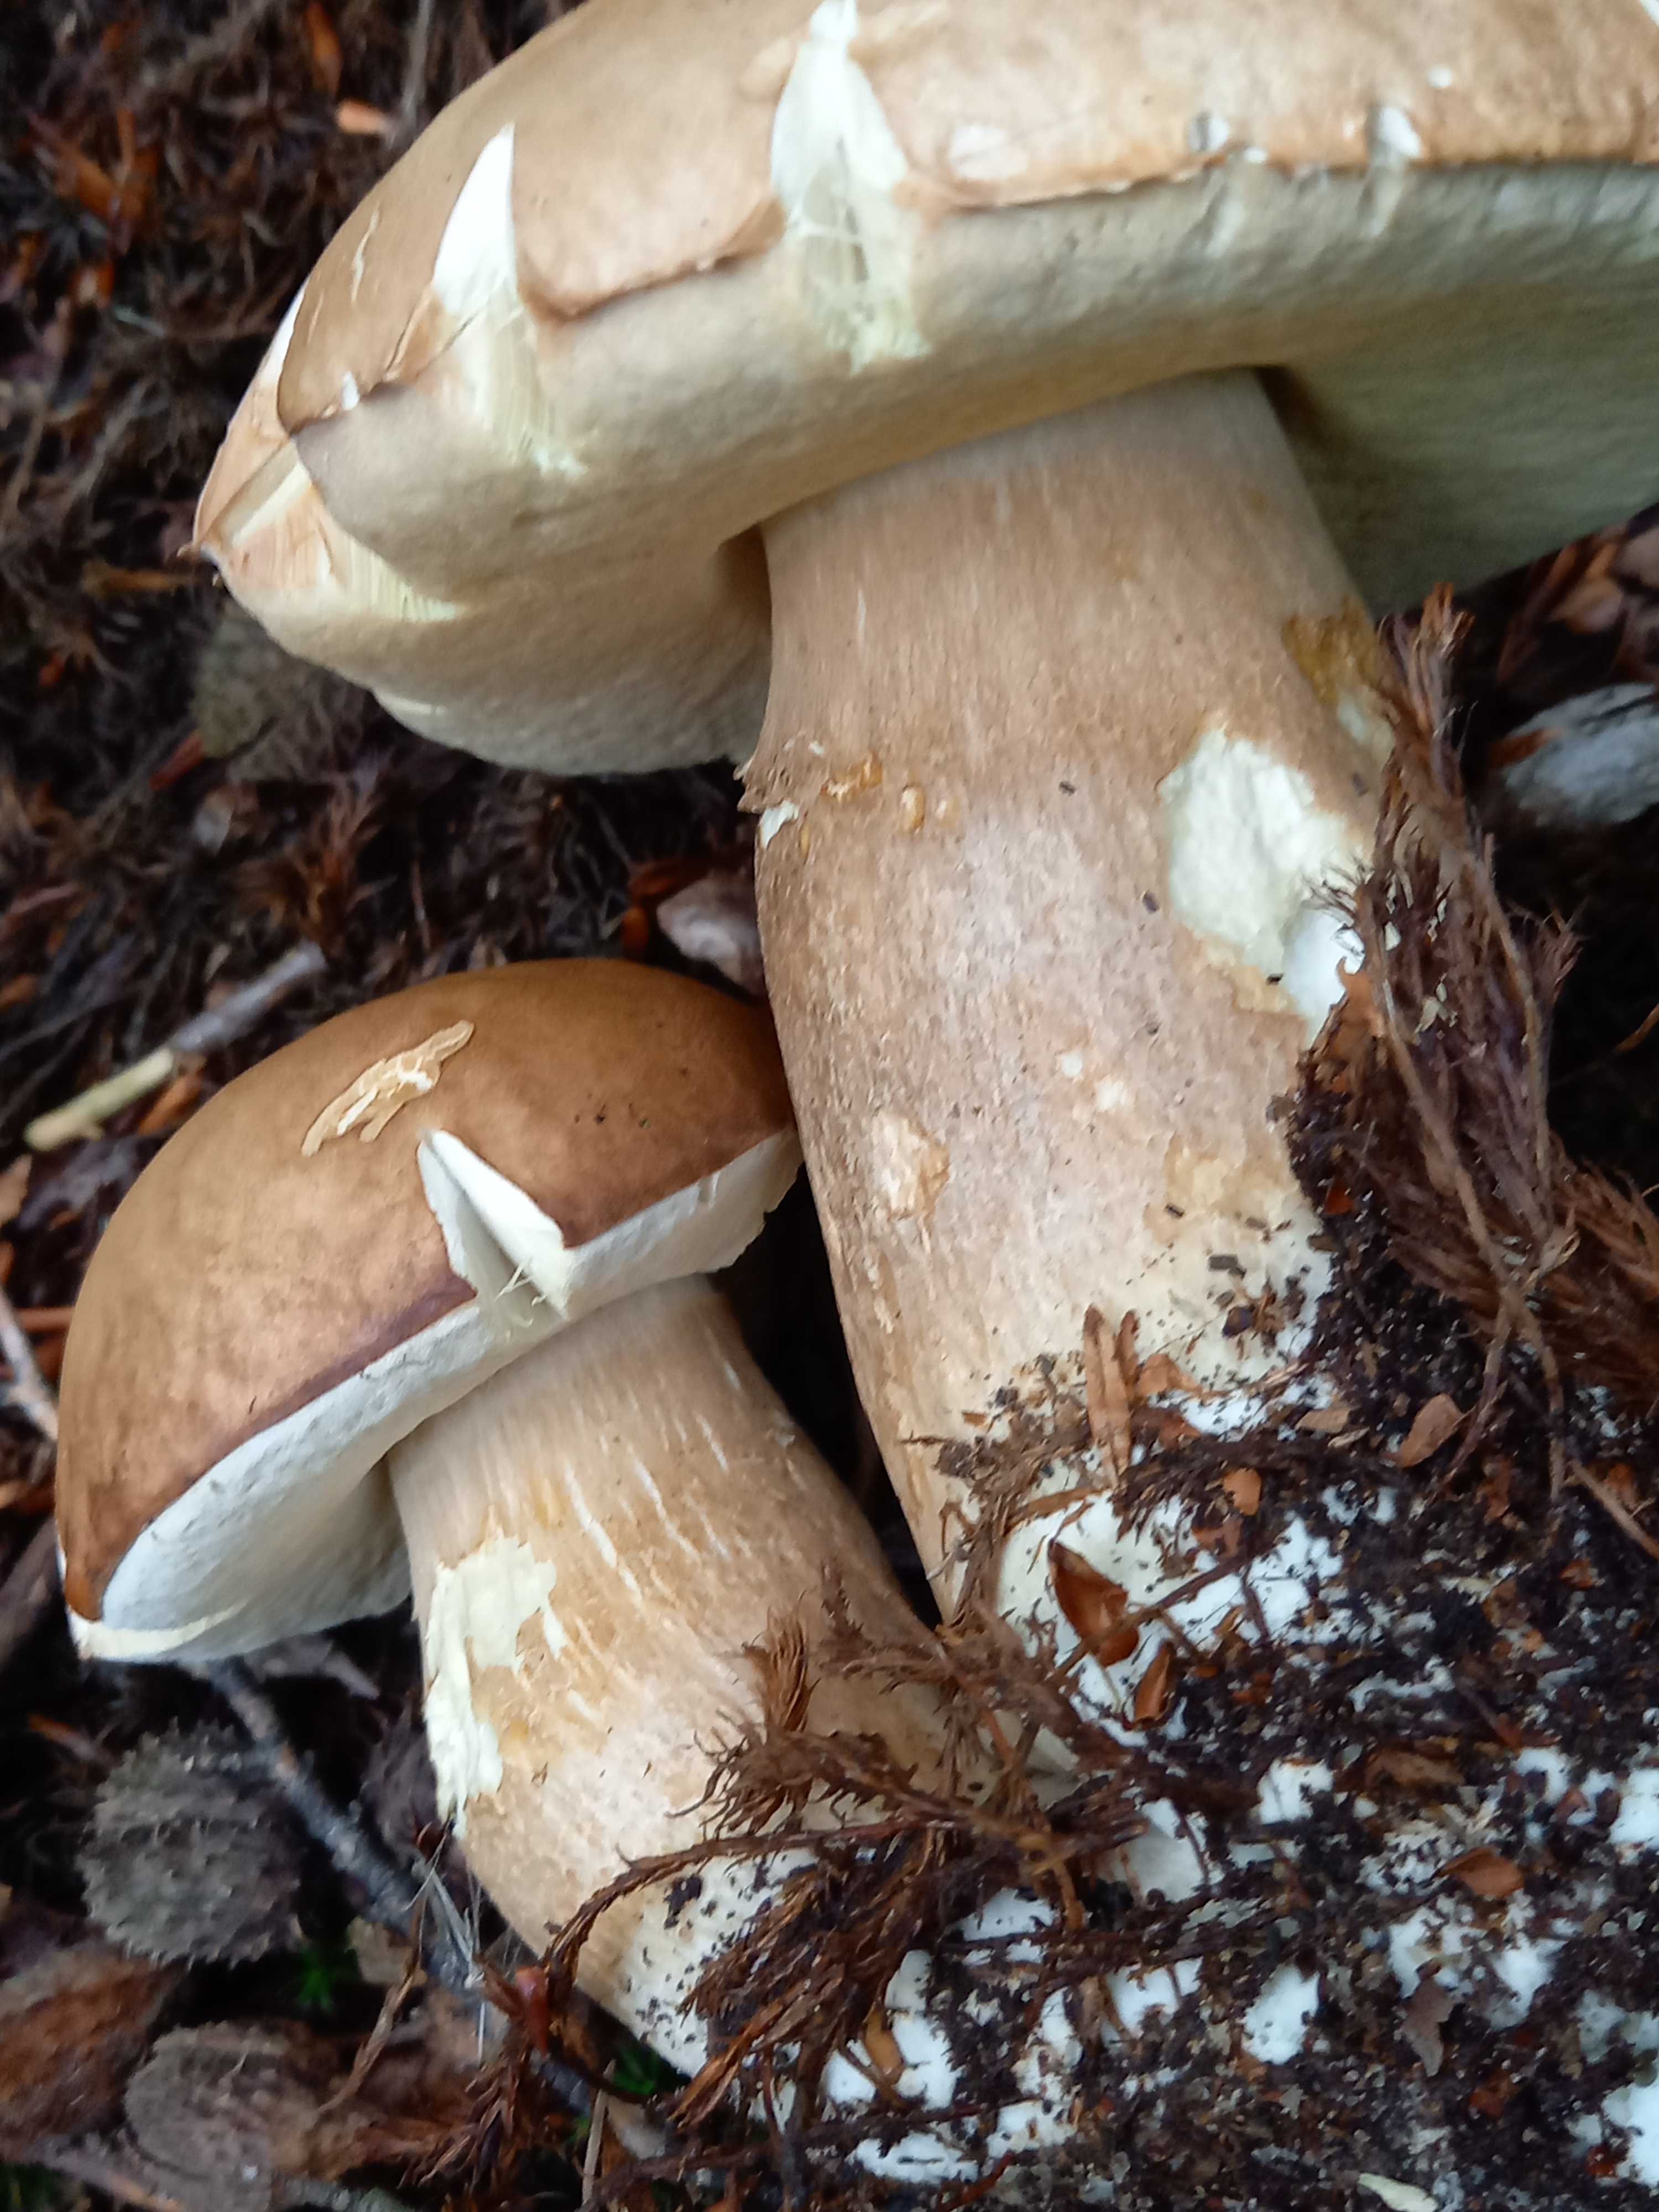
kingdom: Fungi
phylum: Basidiomycota
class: Agaricomycetes
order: Boletales
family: Boletaceae
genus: Boletus
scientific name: Boletus reticulatus
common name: sommer-rørhat
